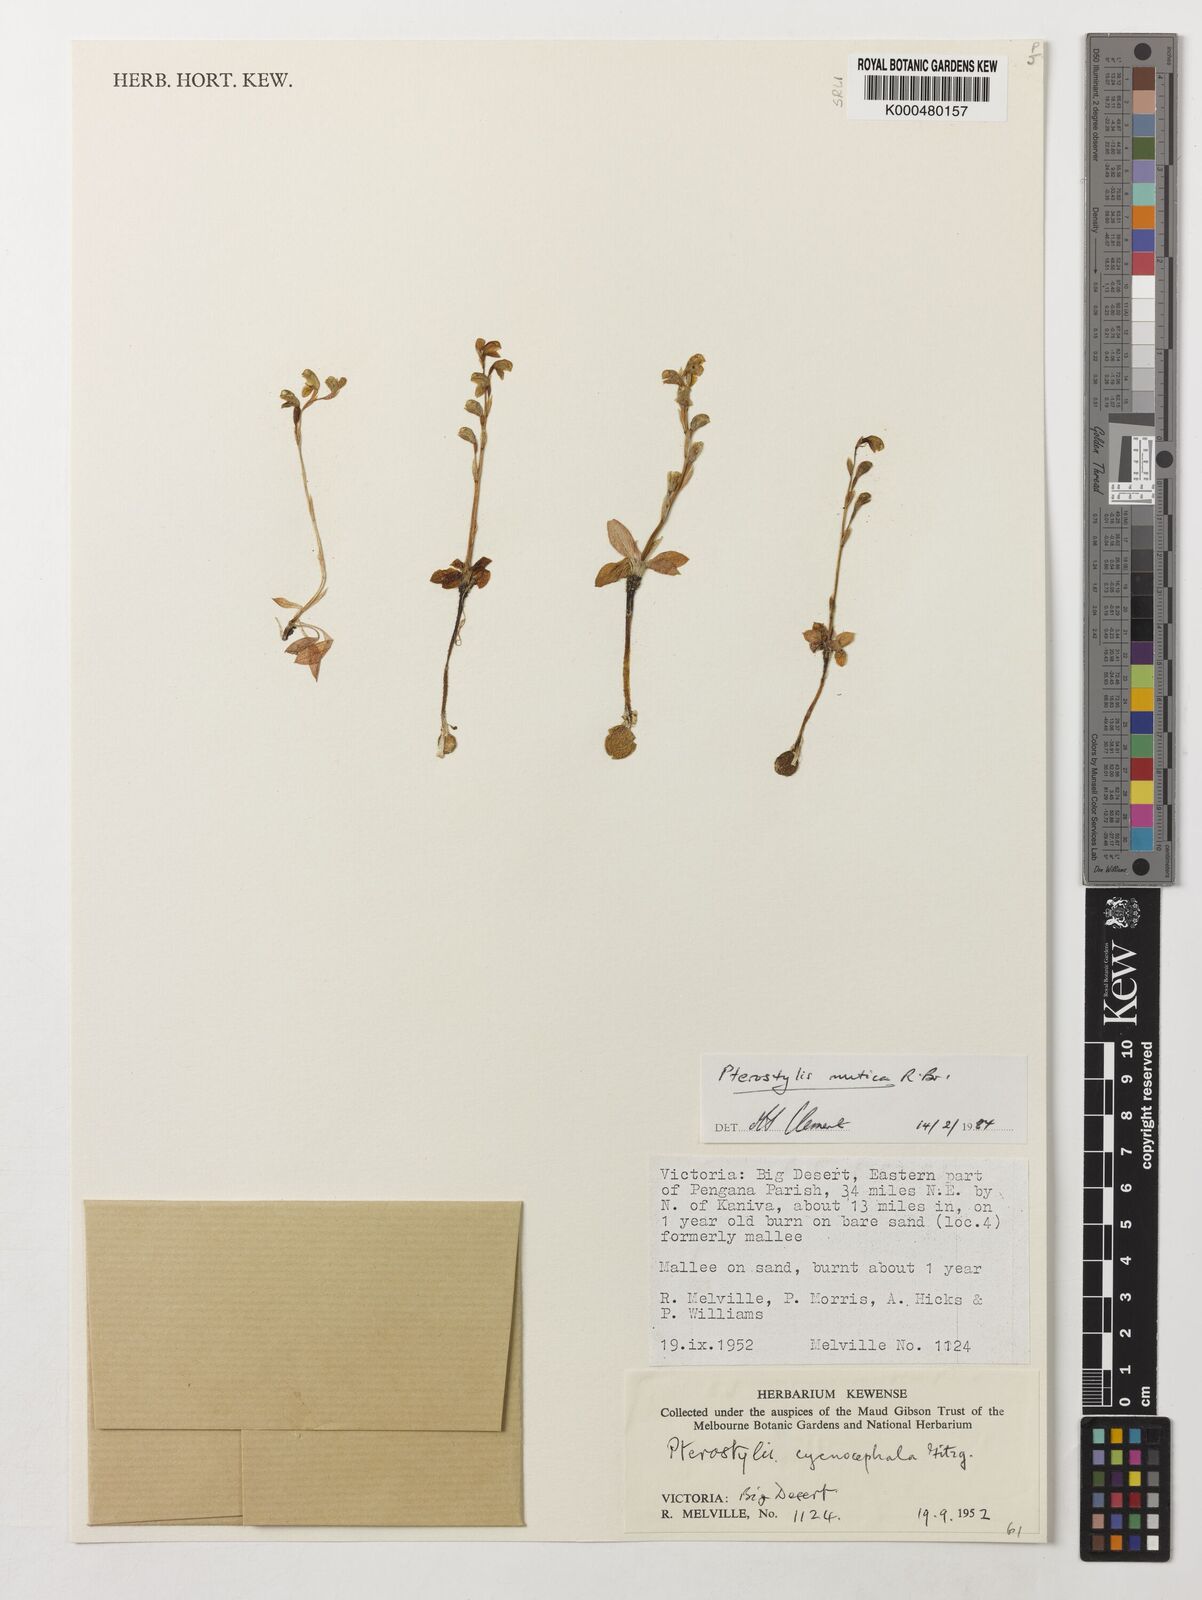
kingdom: Plantae
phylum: Tracheophyta
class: Liliopsida
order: Asparagales
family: Orchidaceae
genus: Pterostylis
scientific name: Pterostylis mutica
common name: Midget greenhood
